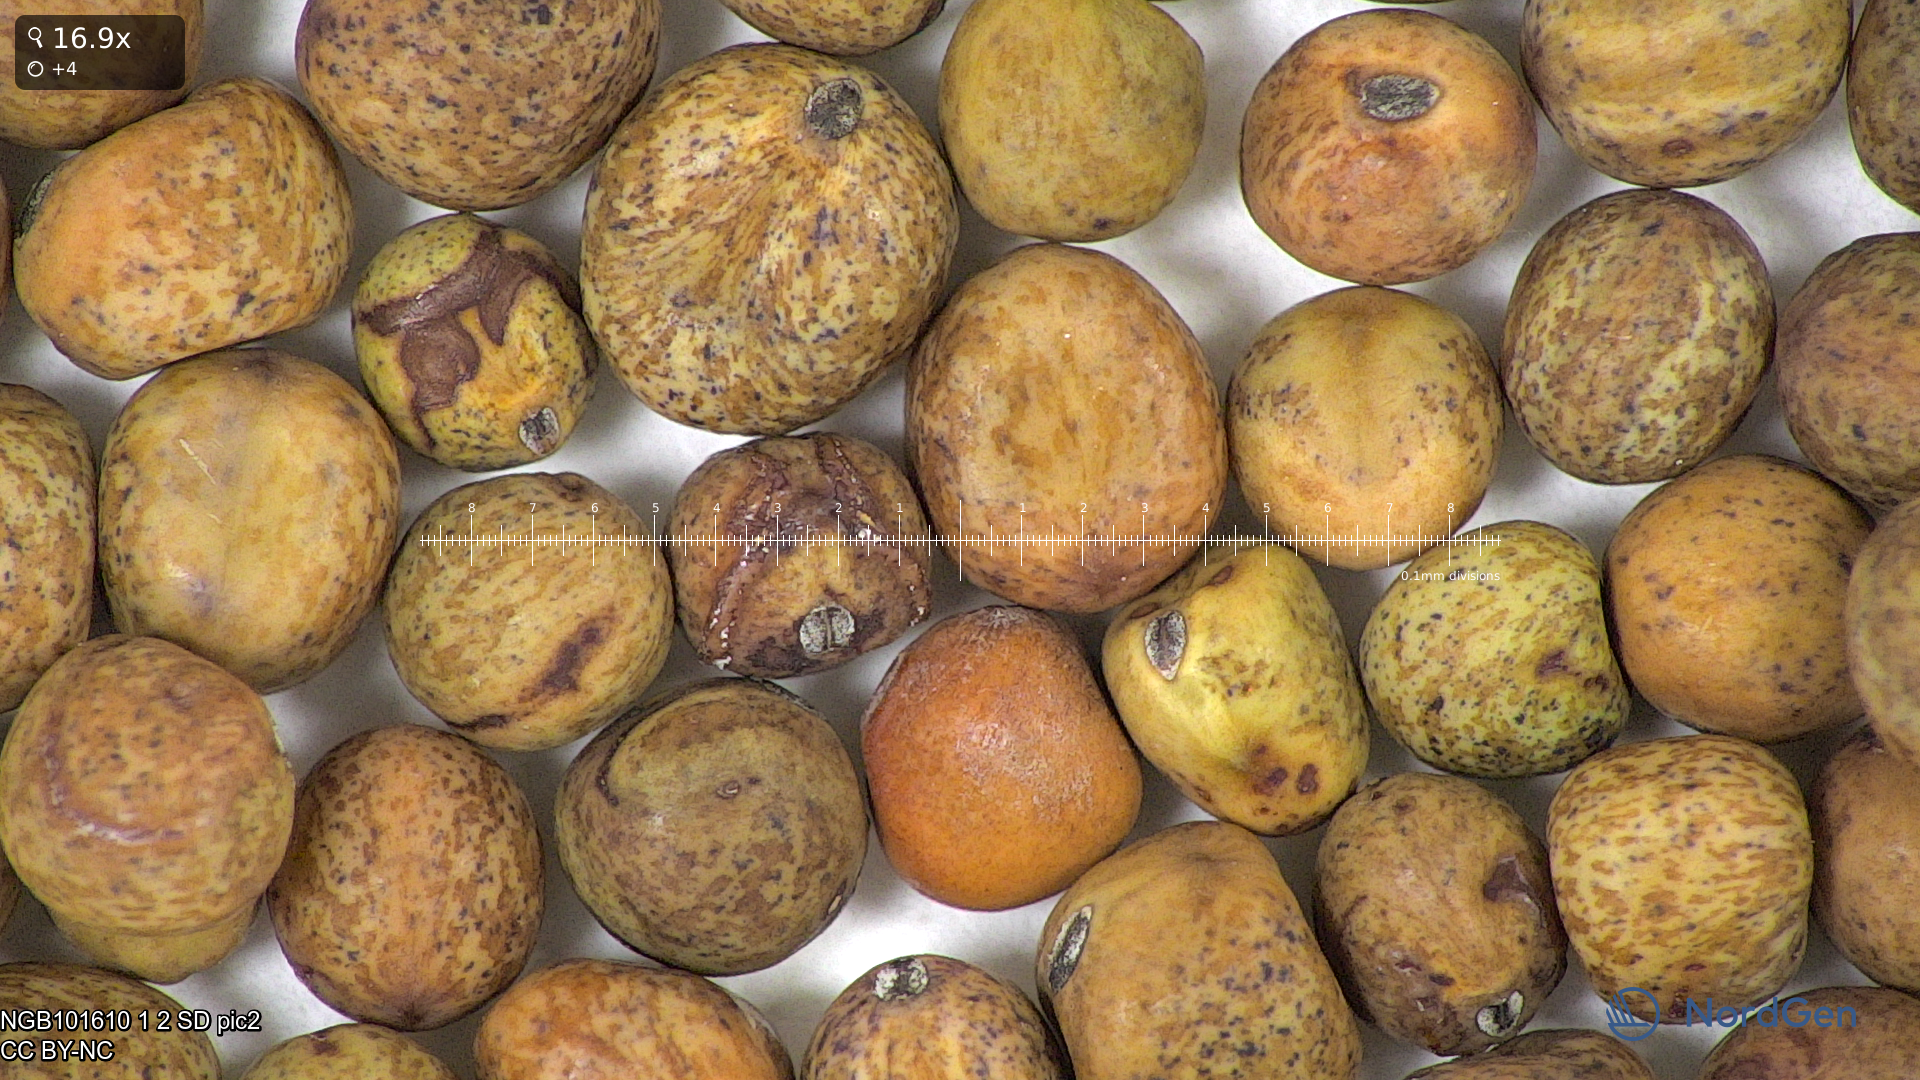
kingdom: Plantae
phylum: Tracheophyta
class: Magnoliopsida
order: Fabales
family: Fabaceae
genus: Lathyrus
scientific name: Lathyrus oleraceus
